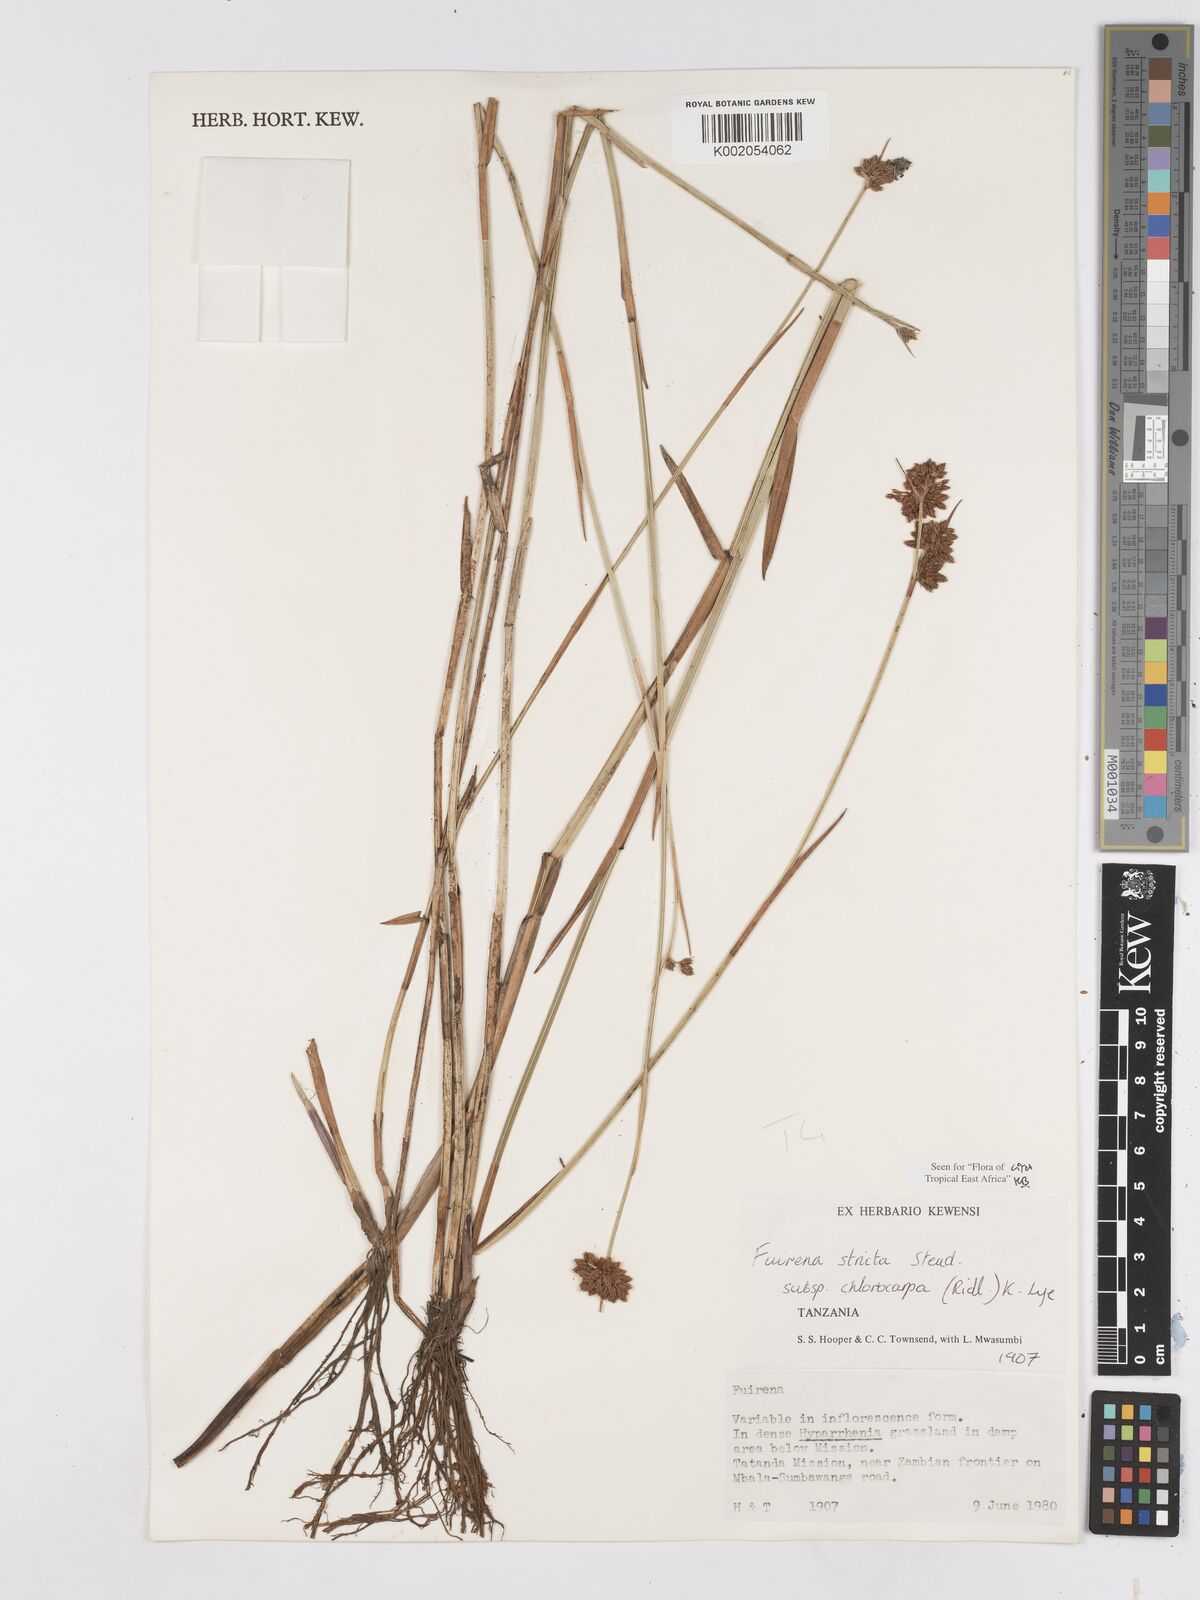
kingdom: Plantae
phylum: Tracheophyta
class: Liliopsida
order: Poales
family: Cyperaceae
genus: Fuirena
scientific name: Fuirena stricta
